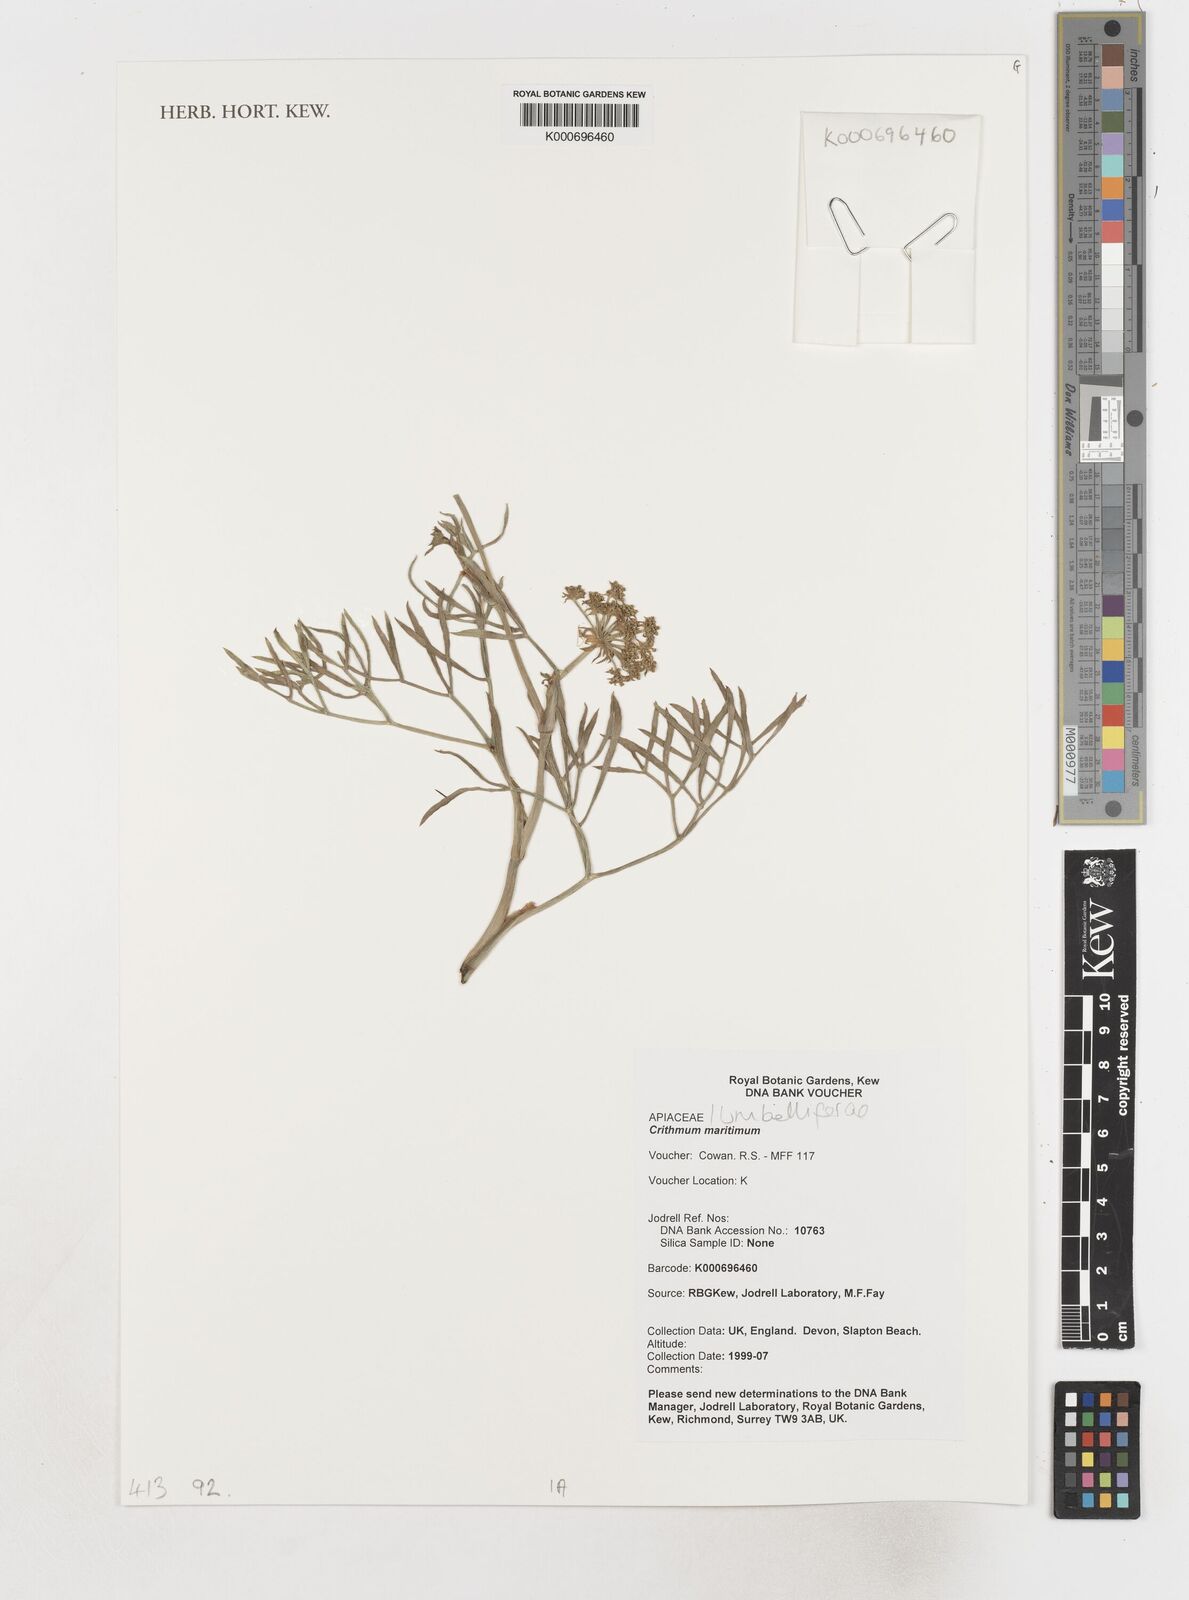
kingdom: Plantae
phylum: Tracheophyta
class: Magnoliopsida
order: Apiales
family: Apiaceae
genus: Crithmum
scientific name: Crithmum maritimum
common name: Rock samphire
